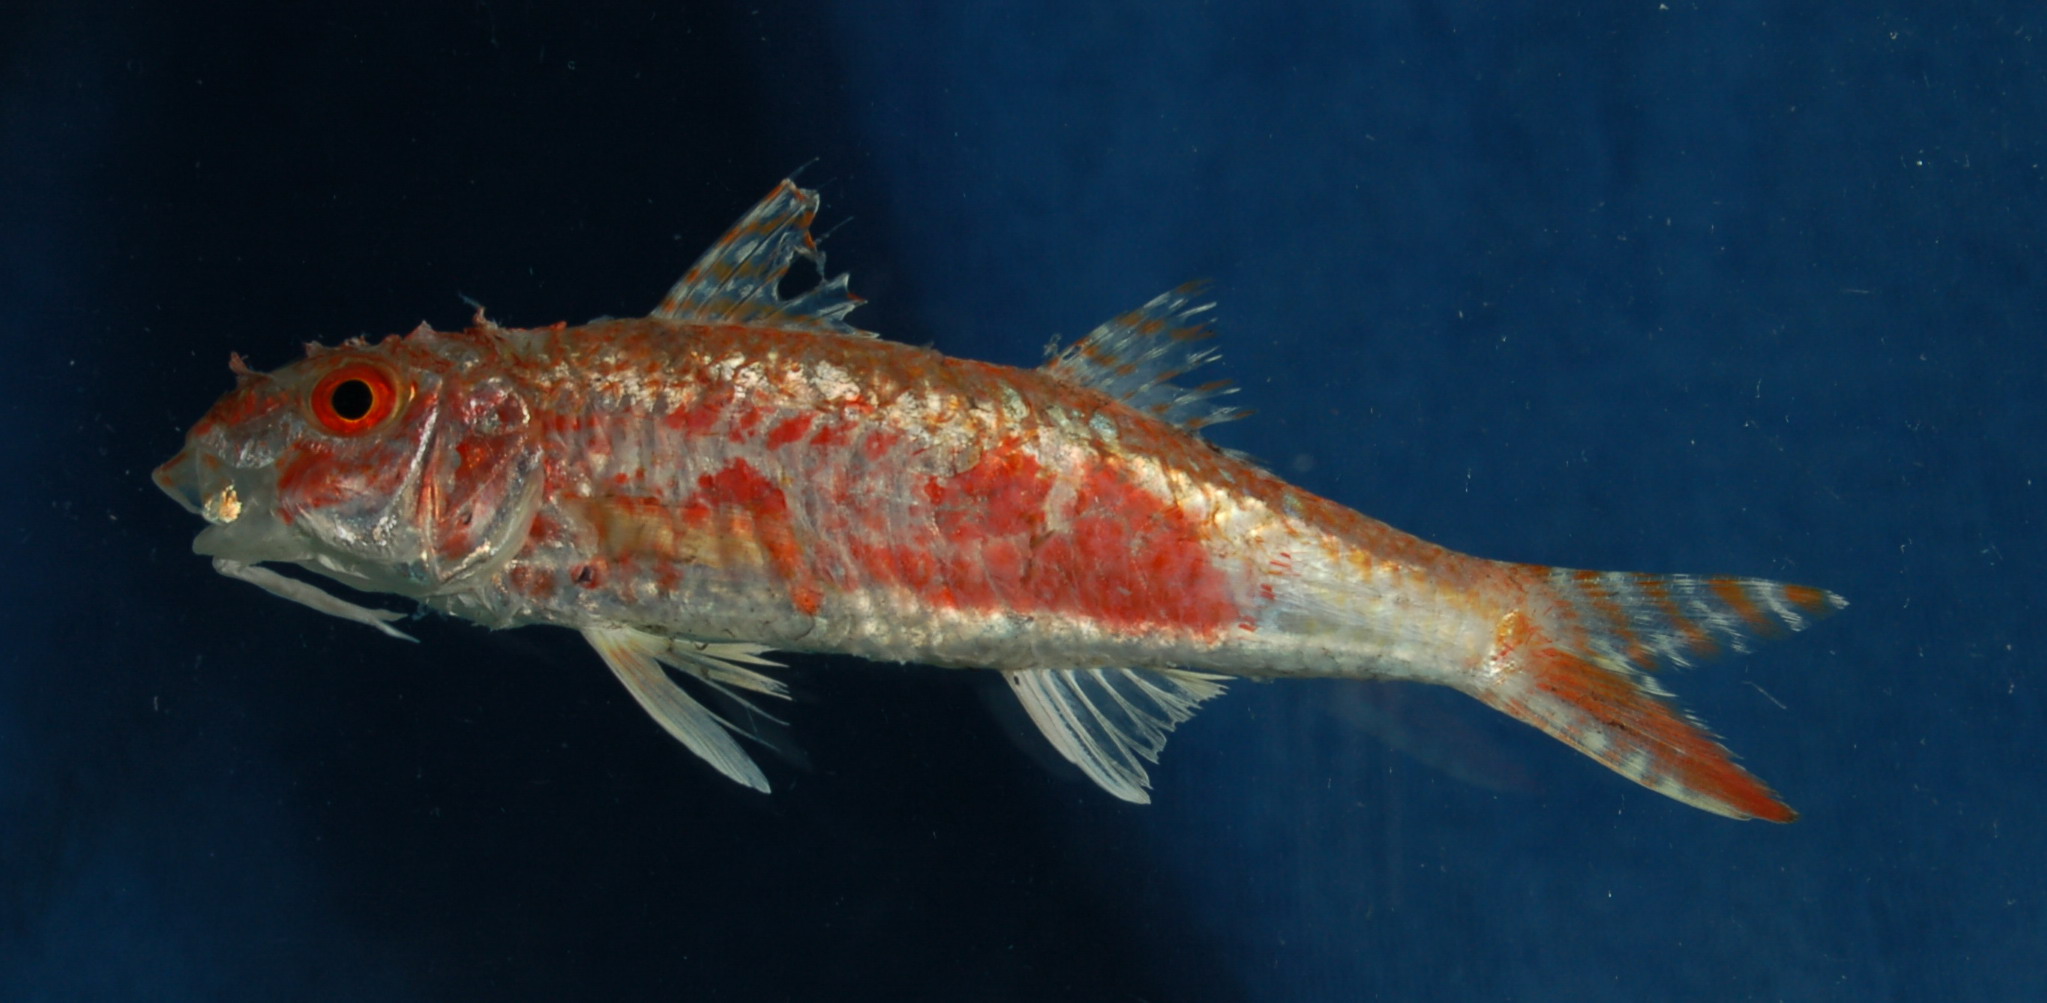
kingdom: Animalia
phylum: Chordata
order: Perciformes
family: Mullidae
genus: Upeneus
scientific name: Upeneus floros
